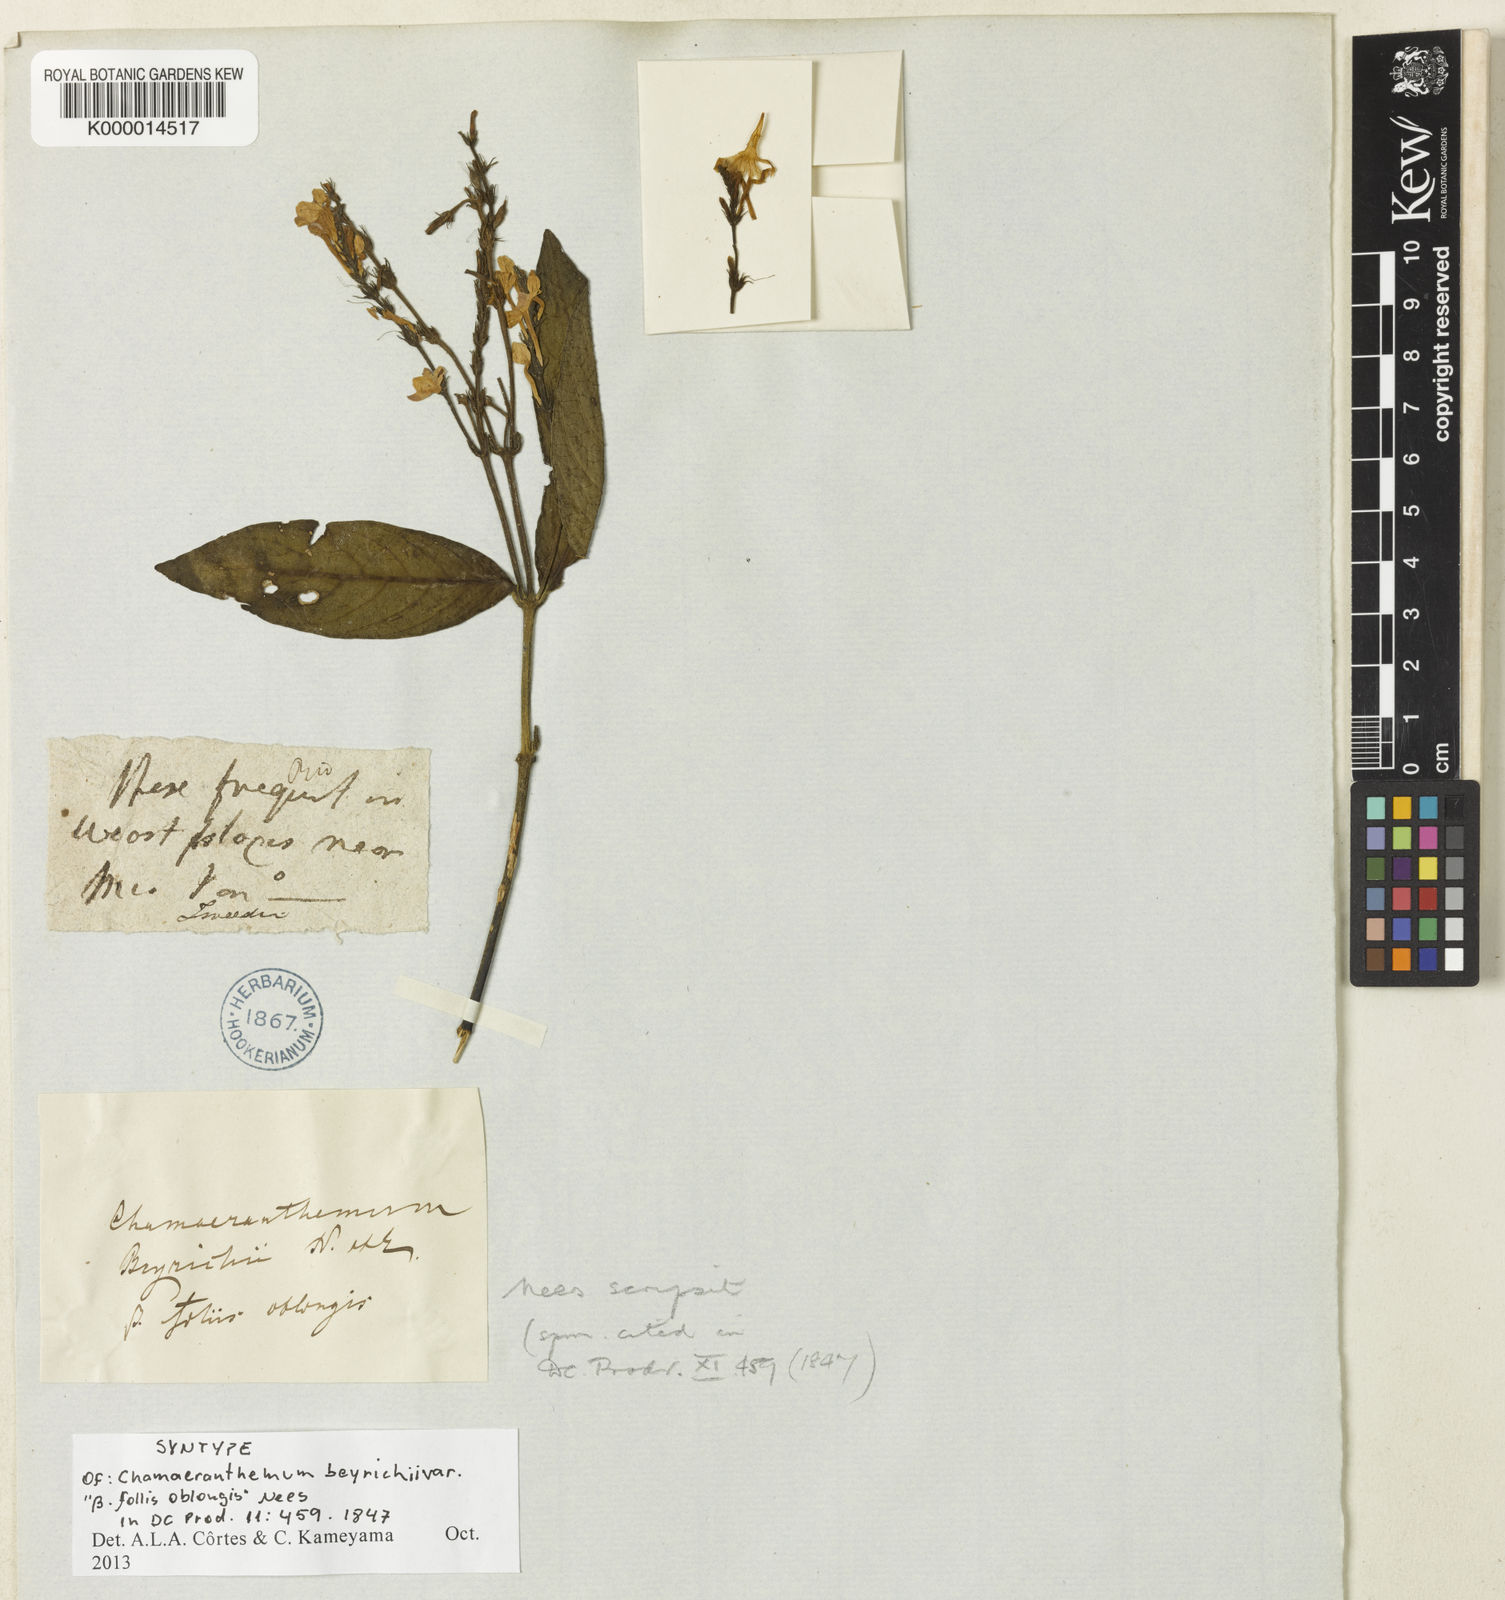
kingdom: Plantae
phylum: Tracheophyta
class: Magnoliopsida
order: Lamiales
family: Acanthaceae
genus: Chamaeranthemum
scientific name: Chamaeranthemum beyrichii
